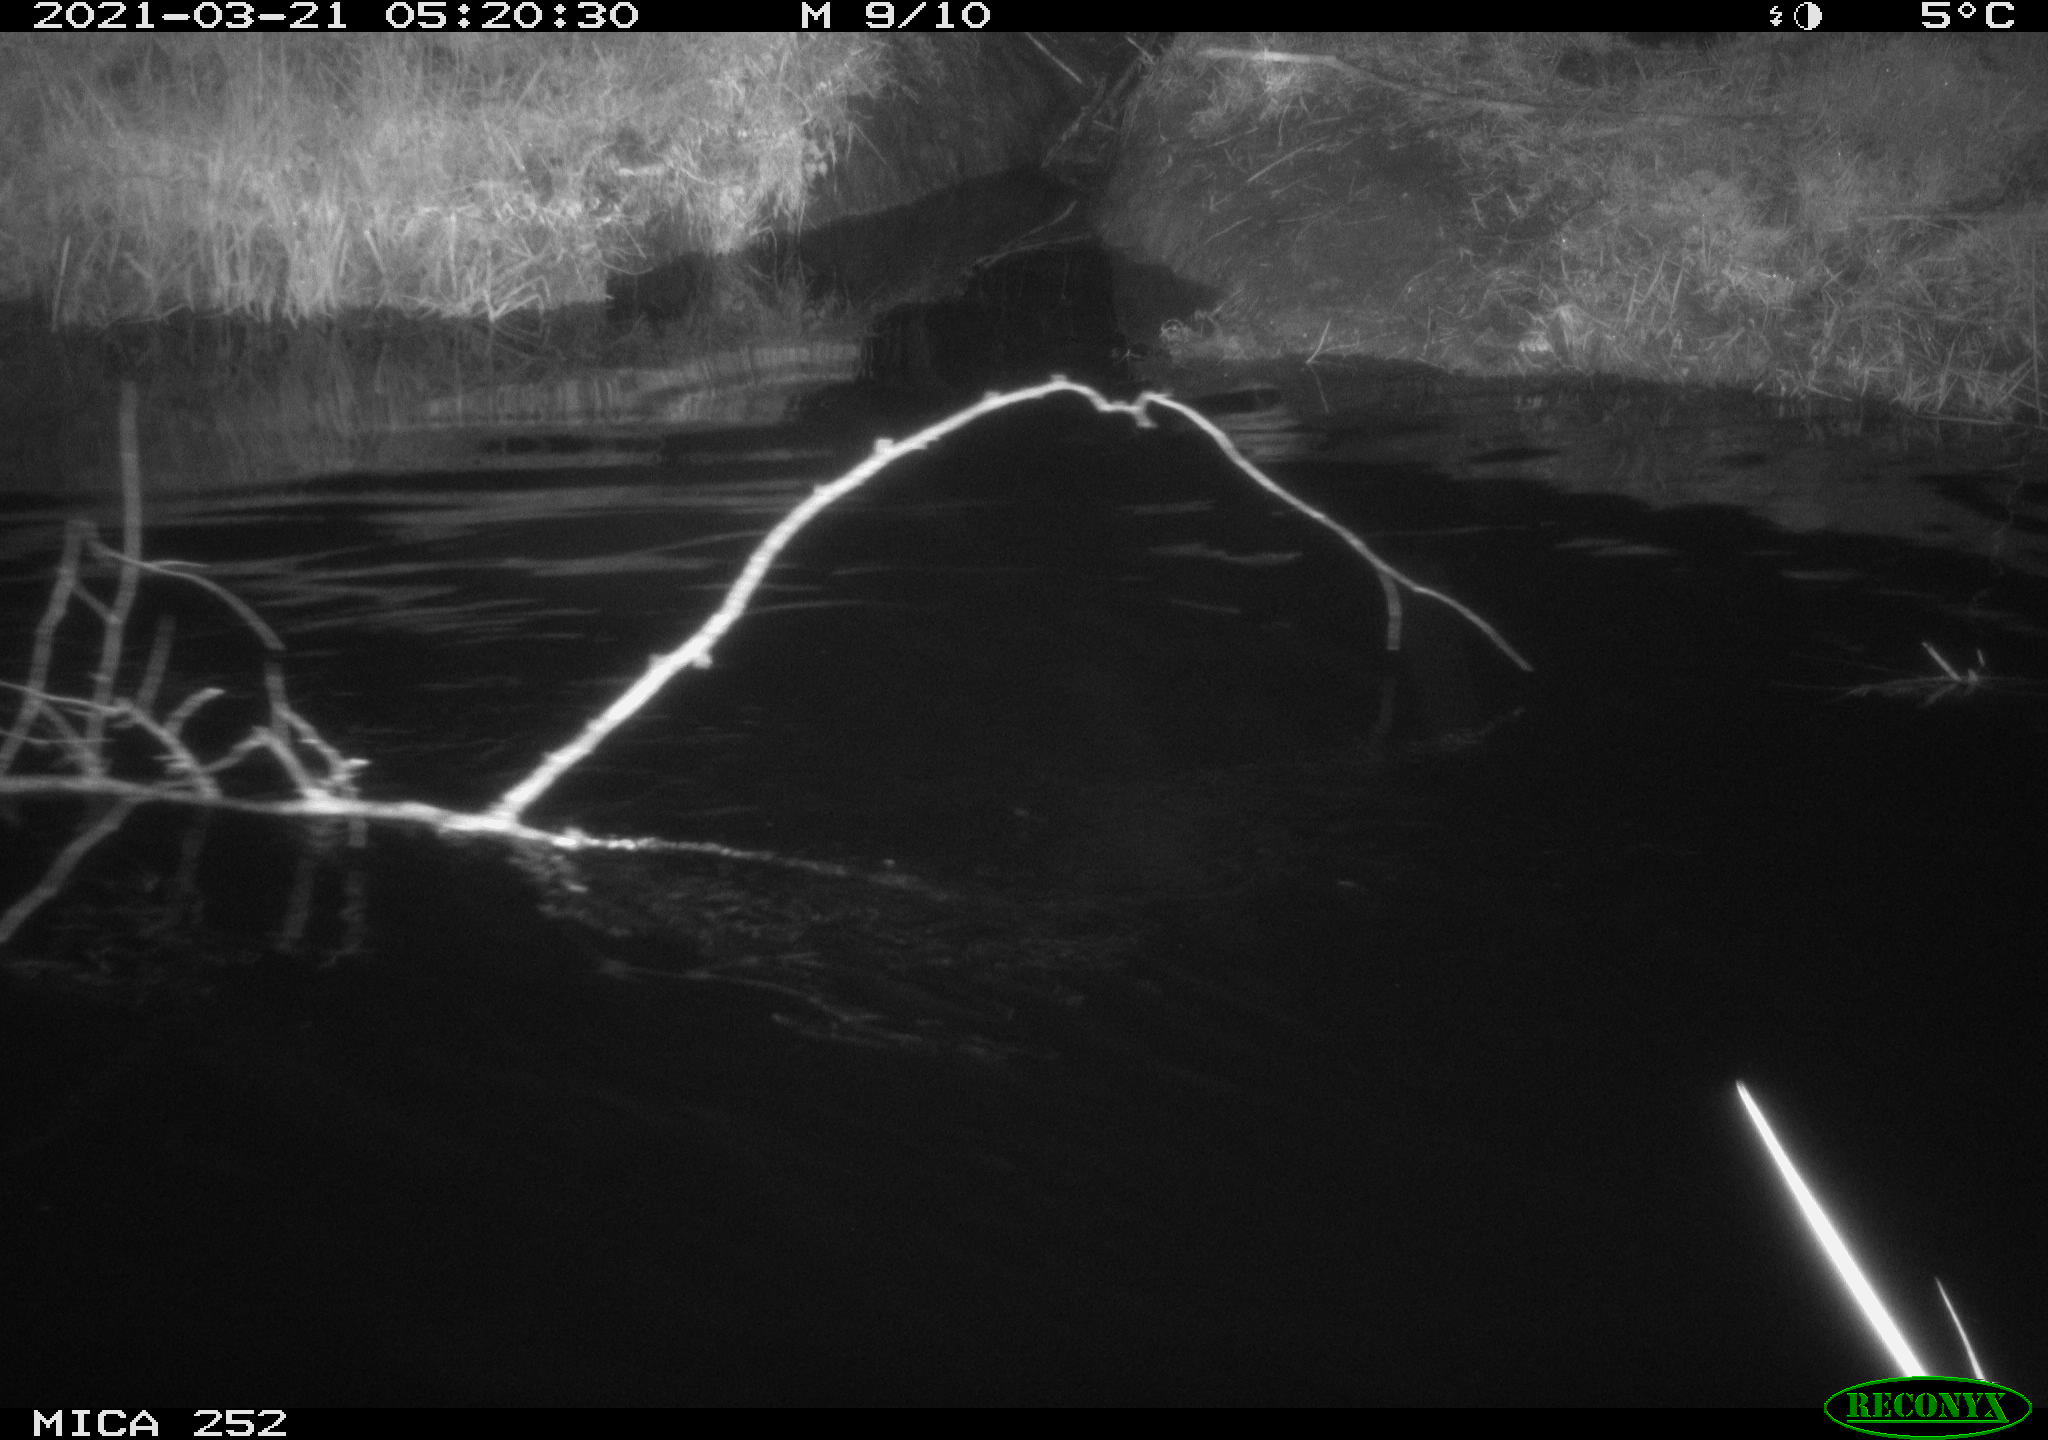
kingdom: Animalia
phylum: Chordata
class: Mammalia
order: Rodentia
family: Castoridae
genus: Castor
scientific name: Castor fiber
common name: Eurasian beaver
